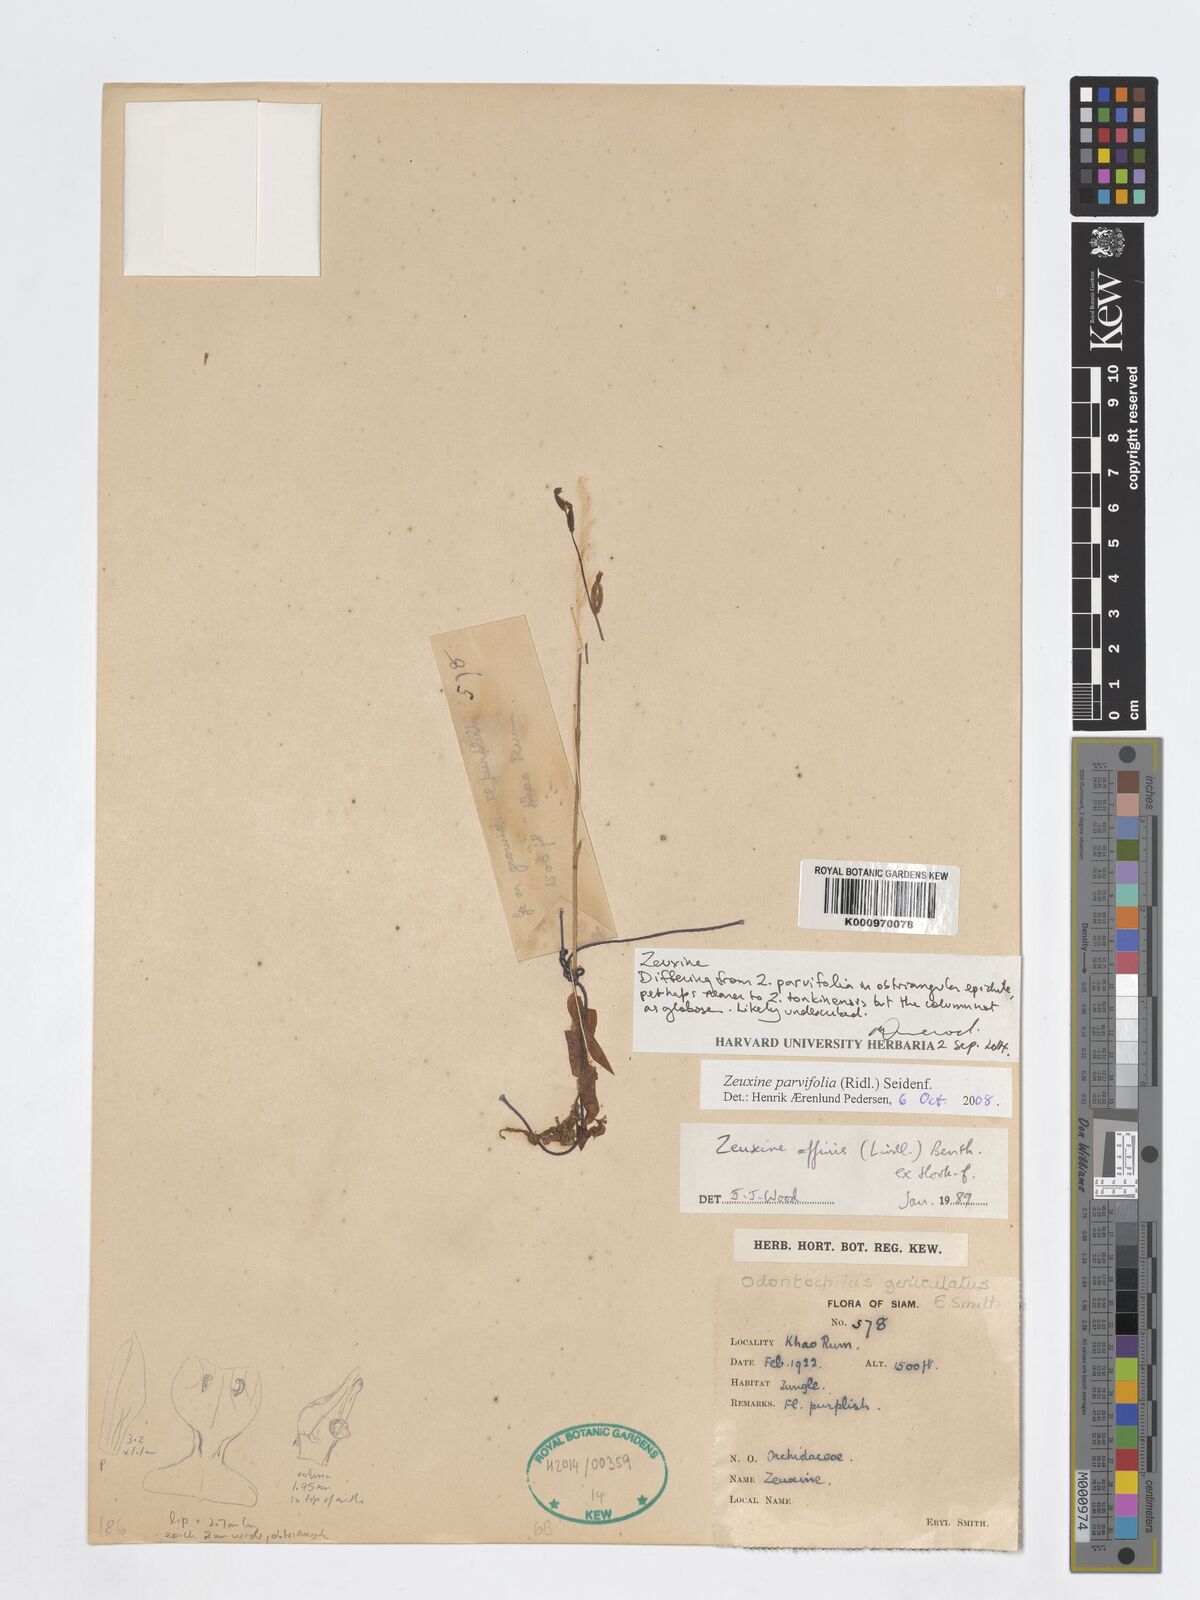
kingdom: Plantae
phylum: Tracheophyta
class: Liliopsida
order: Asparagales
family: Orchidaceae
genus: Zeuxine
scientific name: Zeuxine
